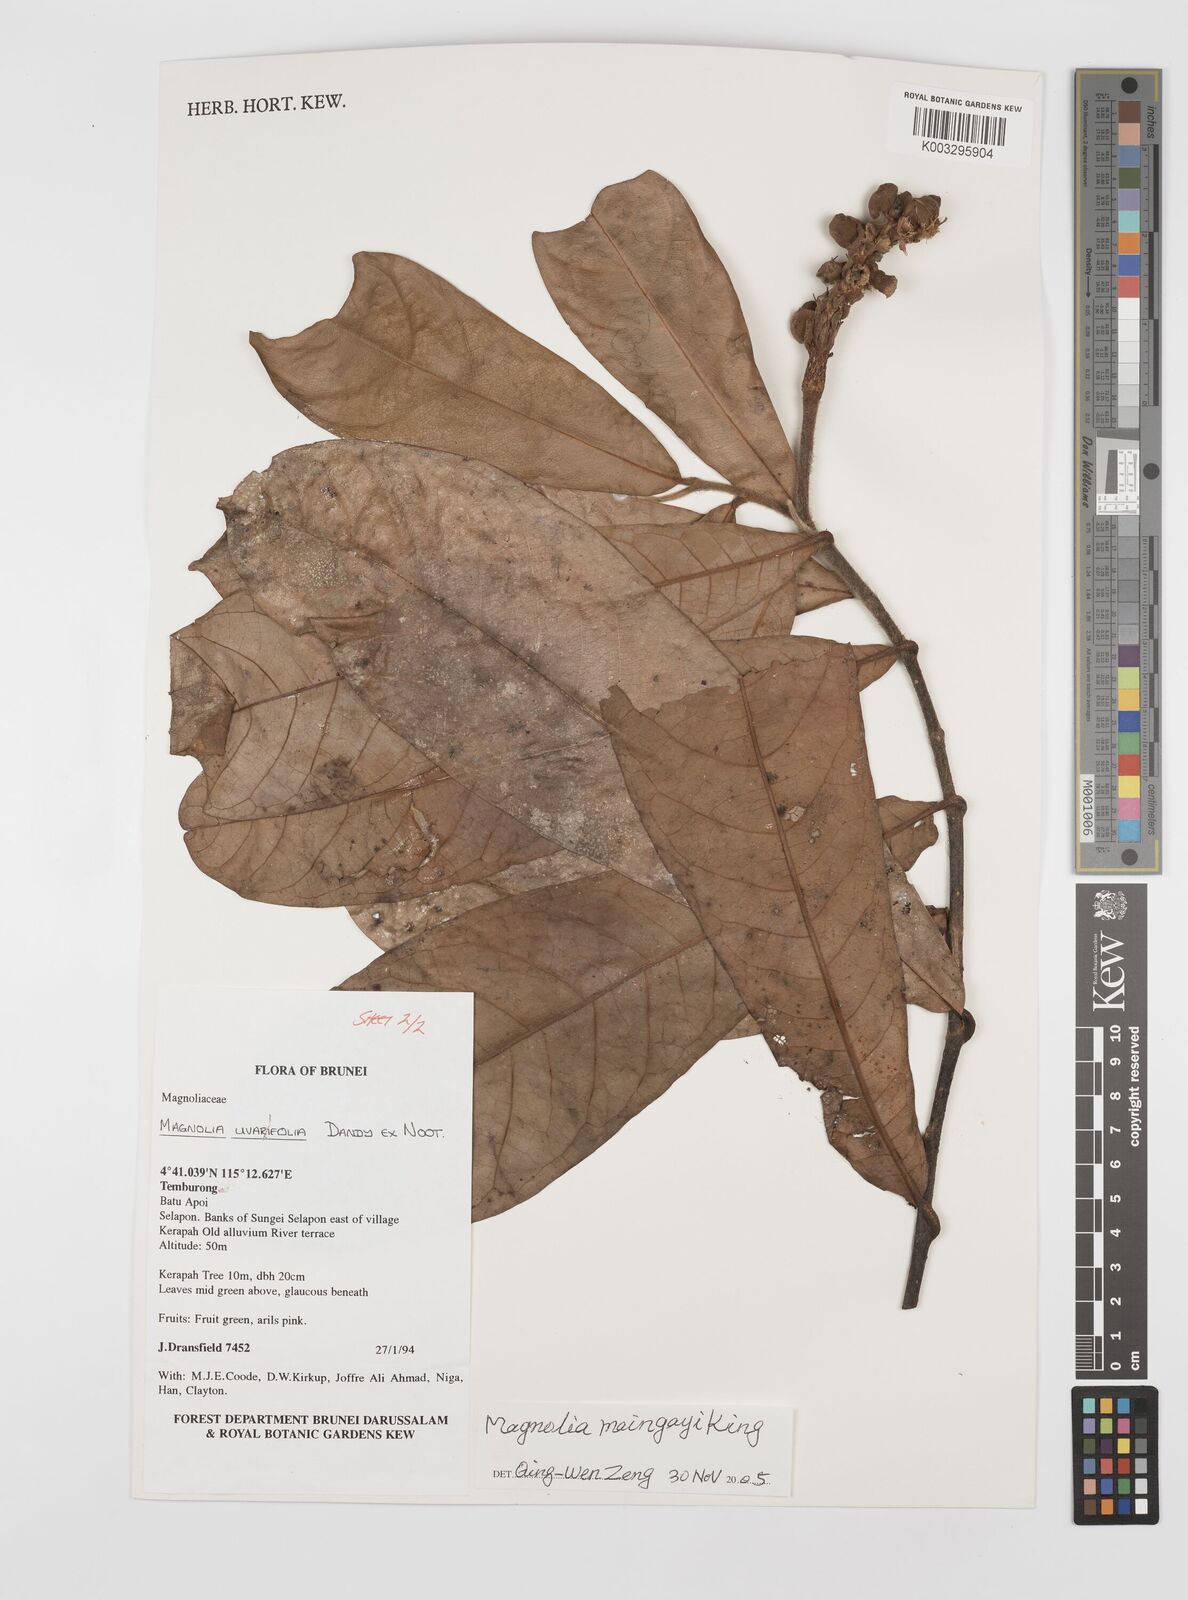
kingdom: Plantae
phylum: Tracheophyta
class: Magnoliopsida
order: Magnoliales
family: Magnoliaceae
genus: Magnolia
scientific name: Magnolia macklottii
